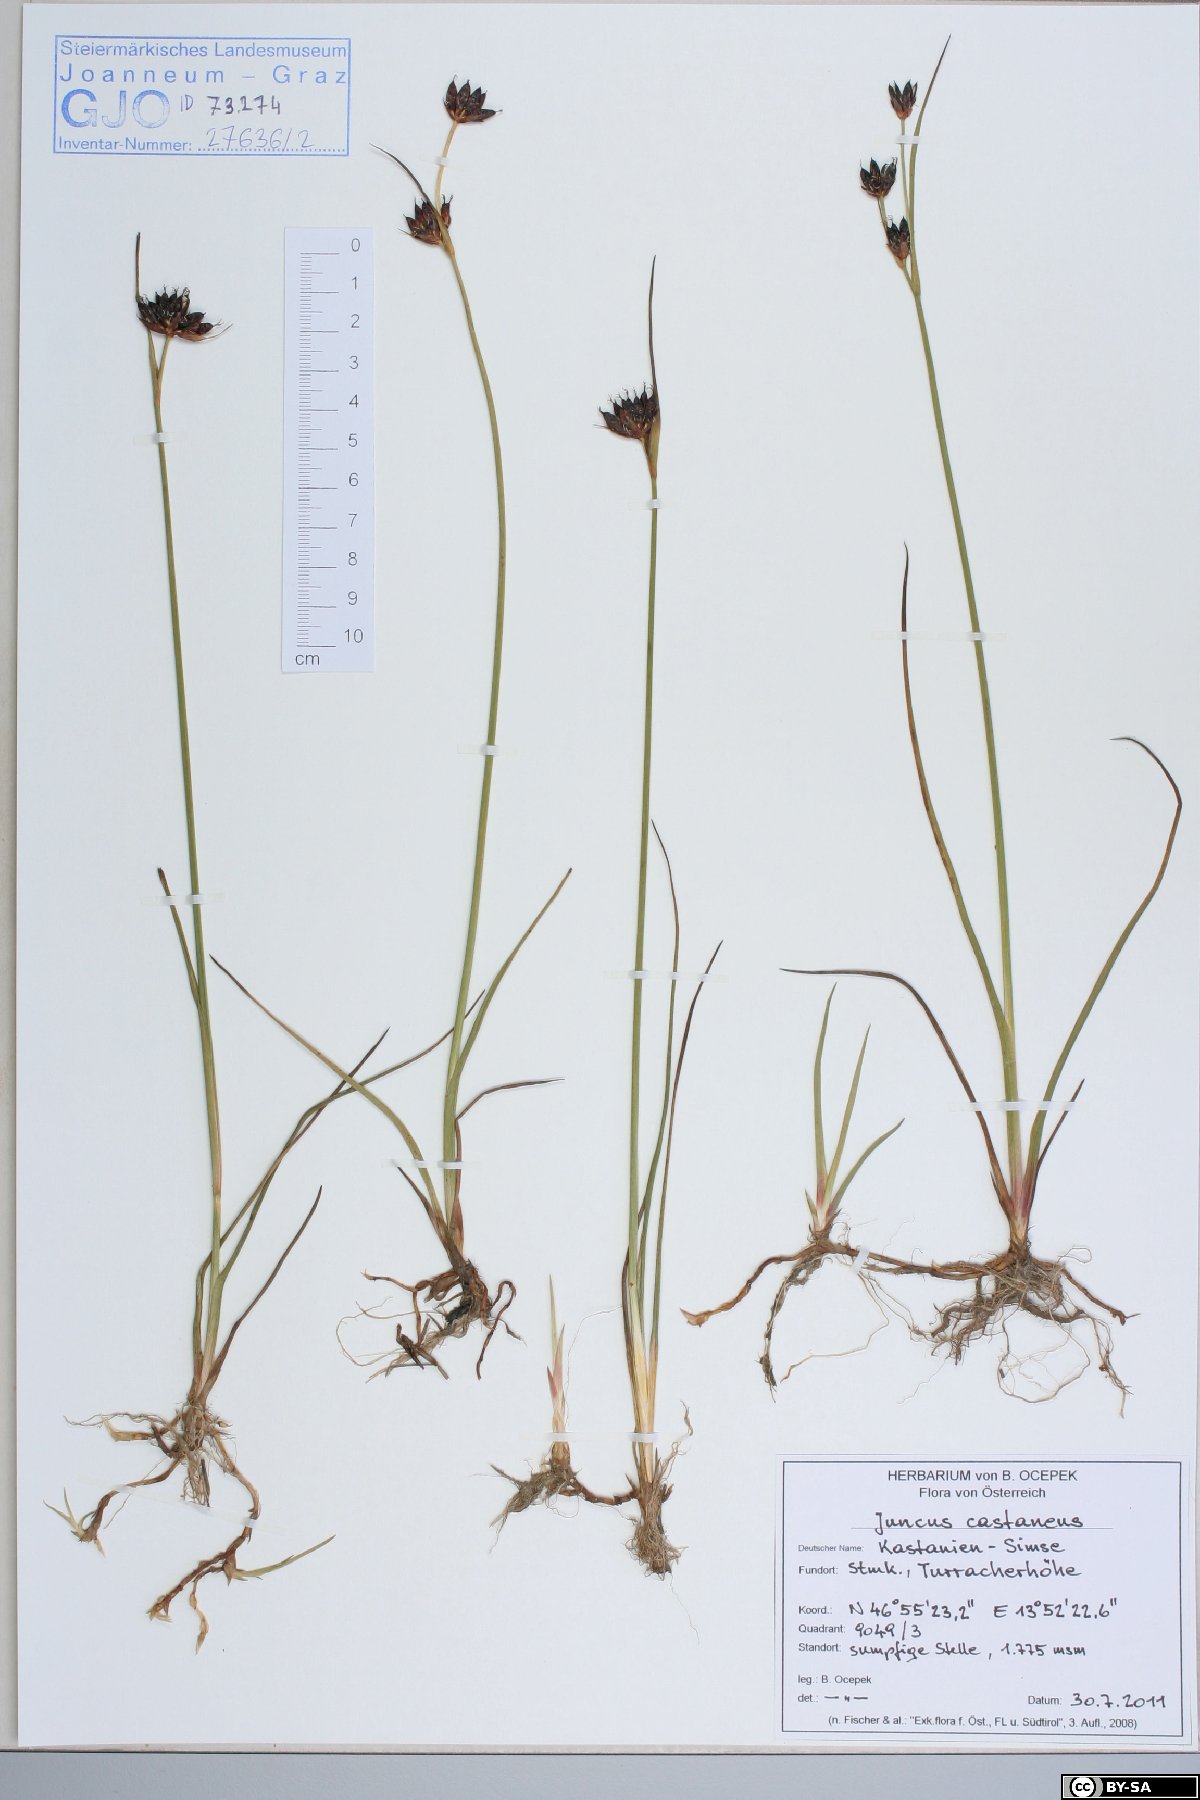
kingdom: Plantae
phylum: Tracheophyta
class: Liliopsida
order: Poales
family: Juncaceae
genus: Juncus
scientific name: Juncus castaneus
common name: Chestnut rush
